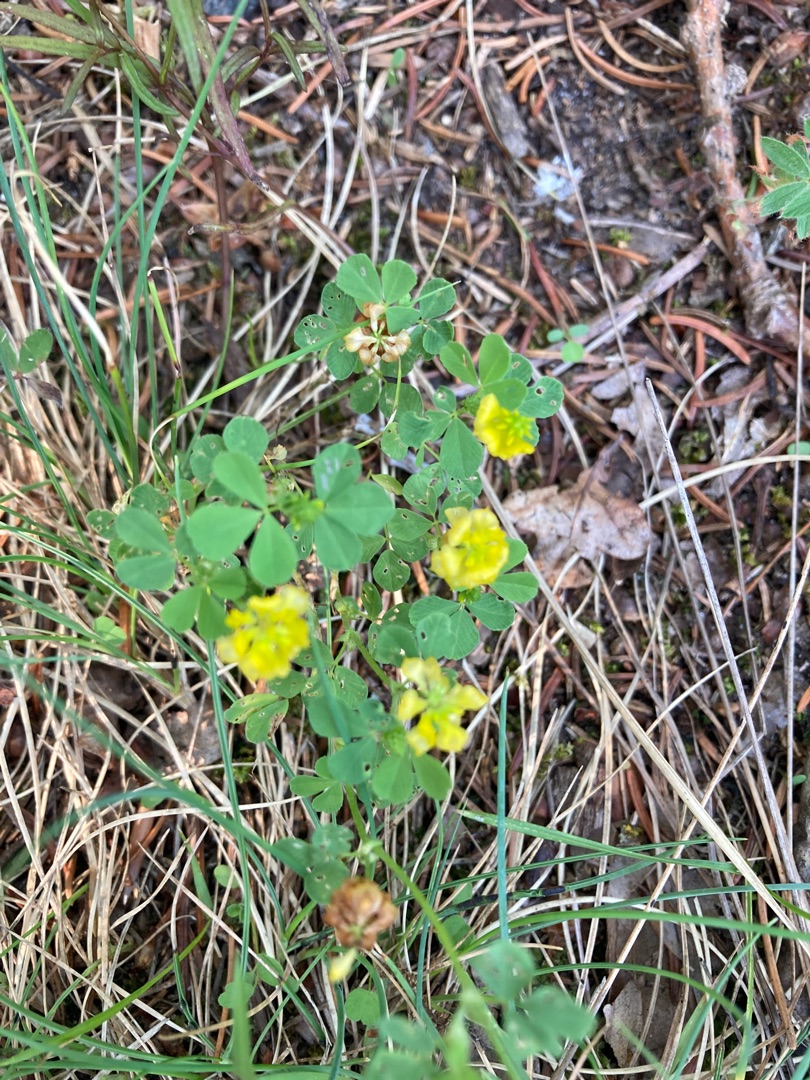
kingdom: Plantae
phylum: Tracheophyta
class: Magnoliopsida
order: Fabales
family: Fabaceae
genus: Trifolium
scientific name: Trifolium campestre
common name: Gul kløver
